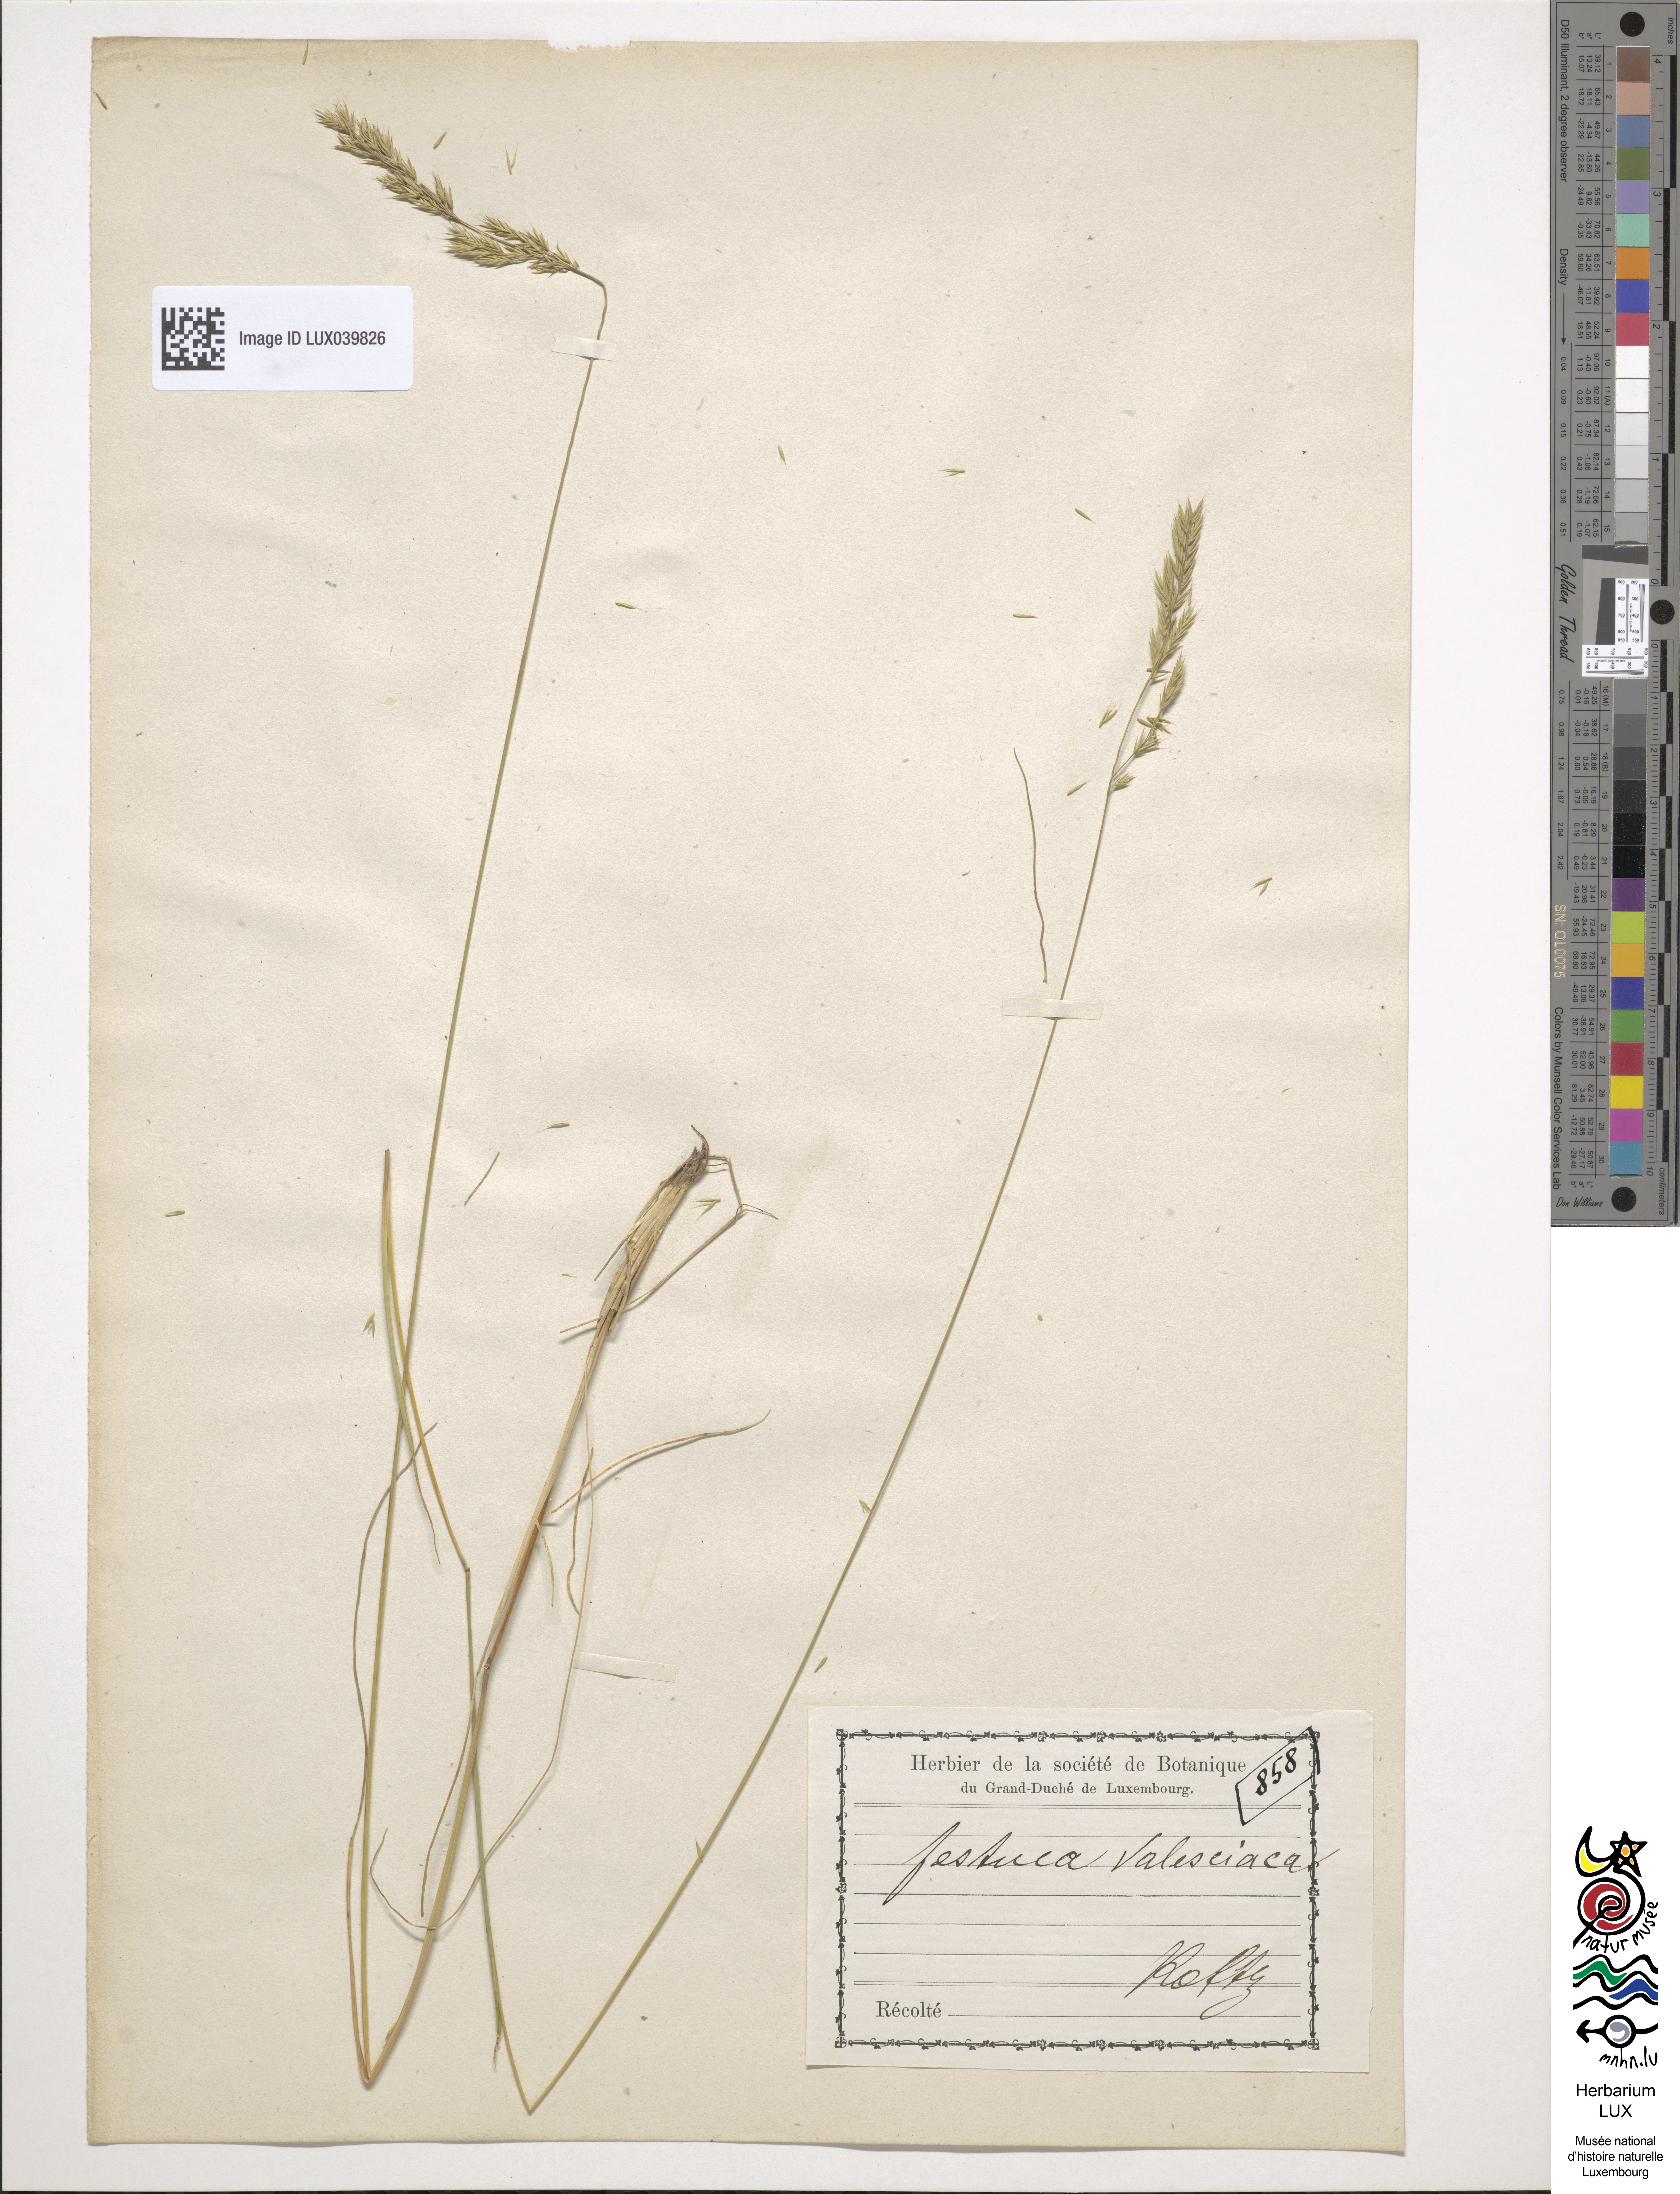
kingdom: Plantae
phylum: Tracheophyta
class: Liliopsida
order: Poales
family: Poaceae
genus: Festuca
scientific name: Festuca valesiaca
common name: Volga fescue
